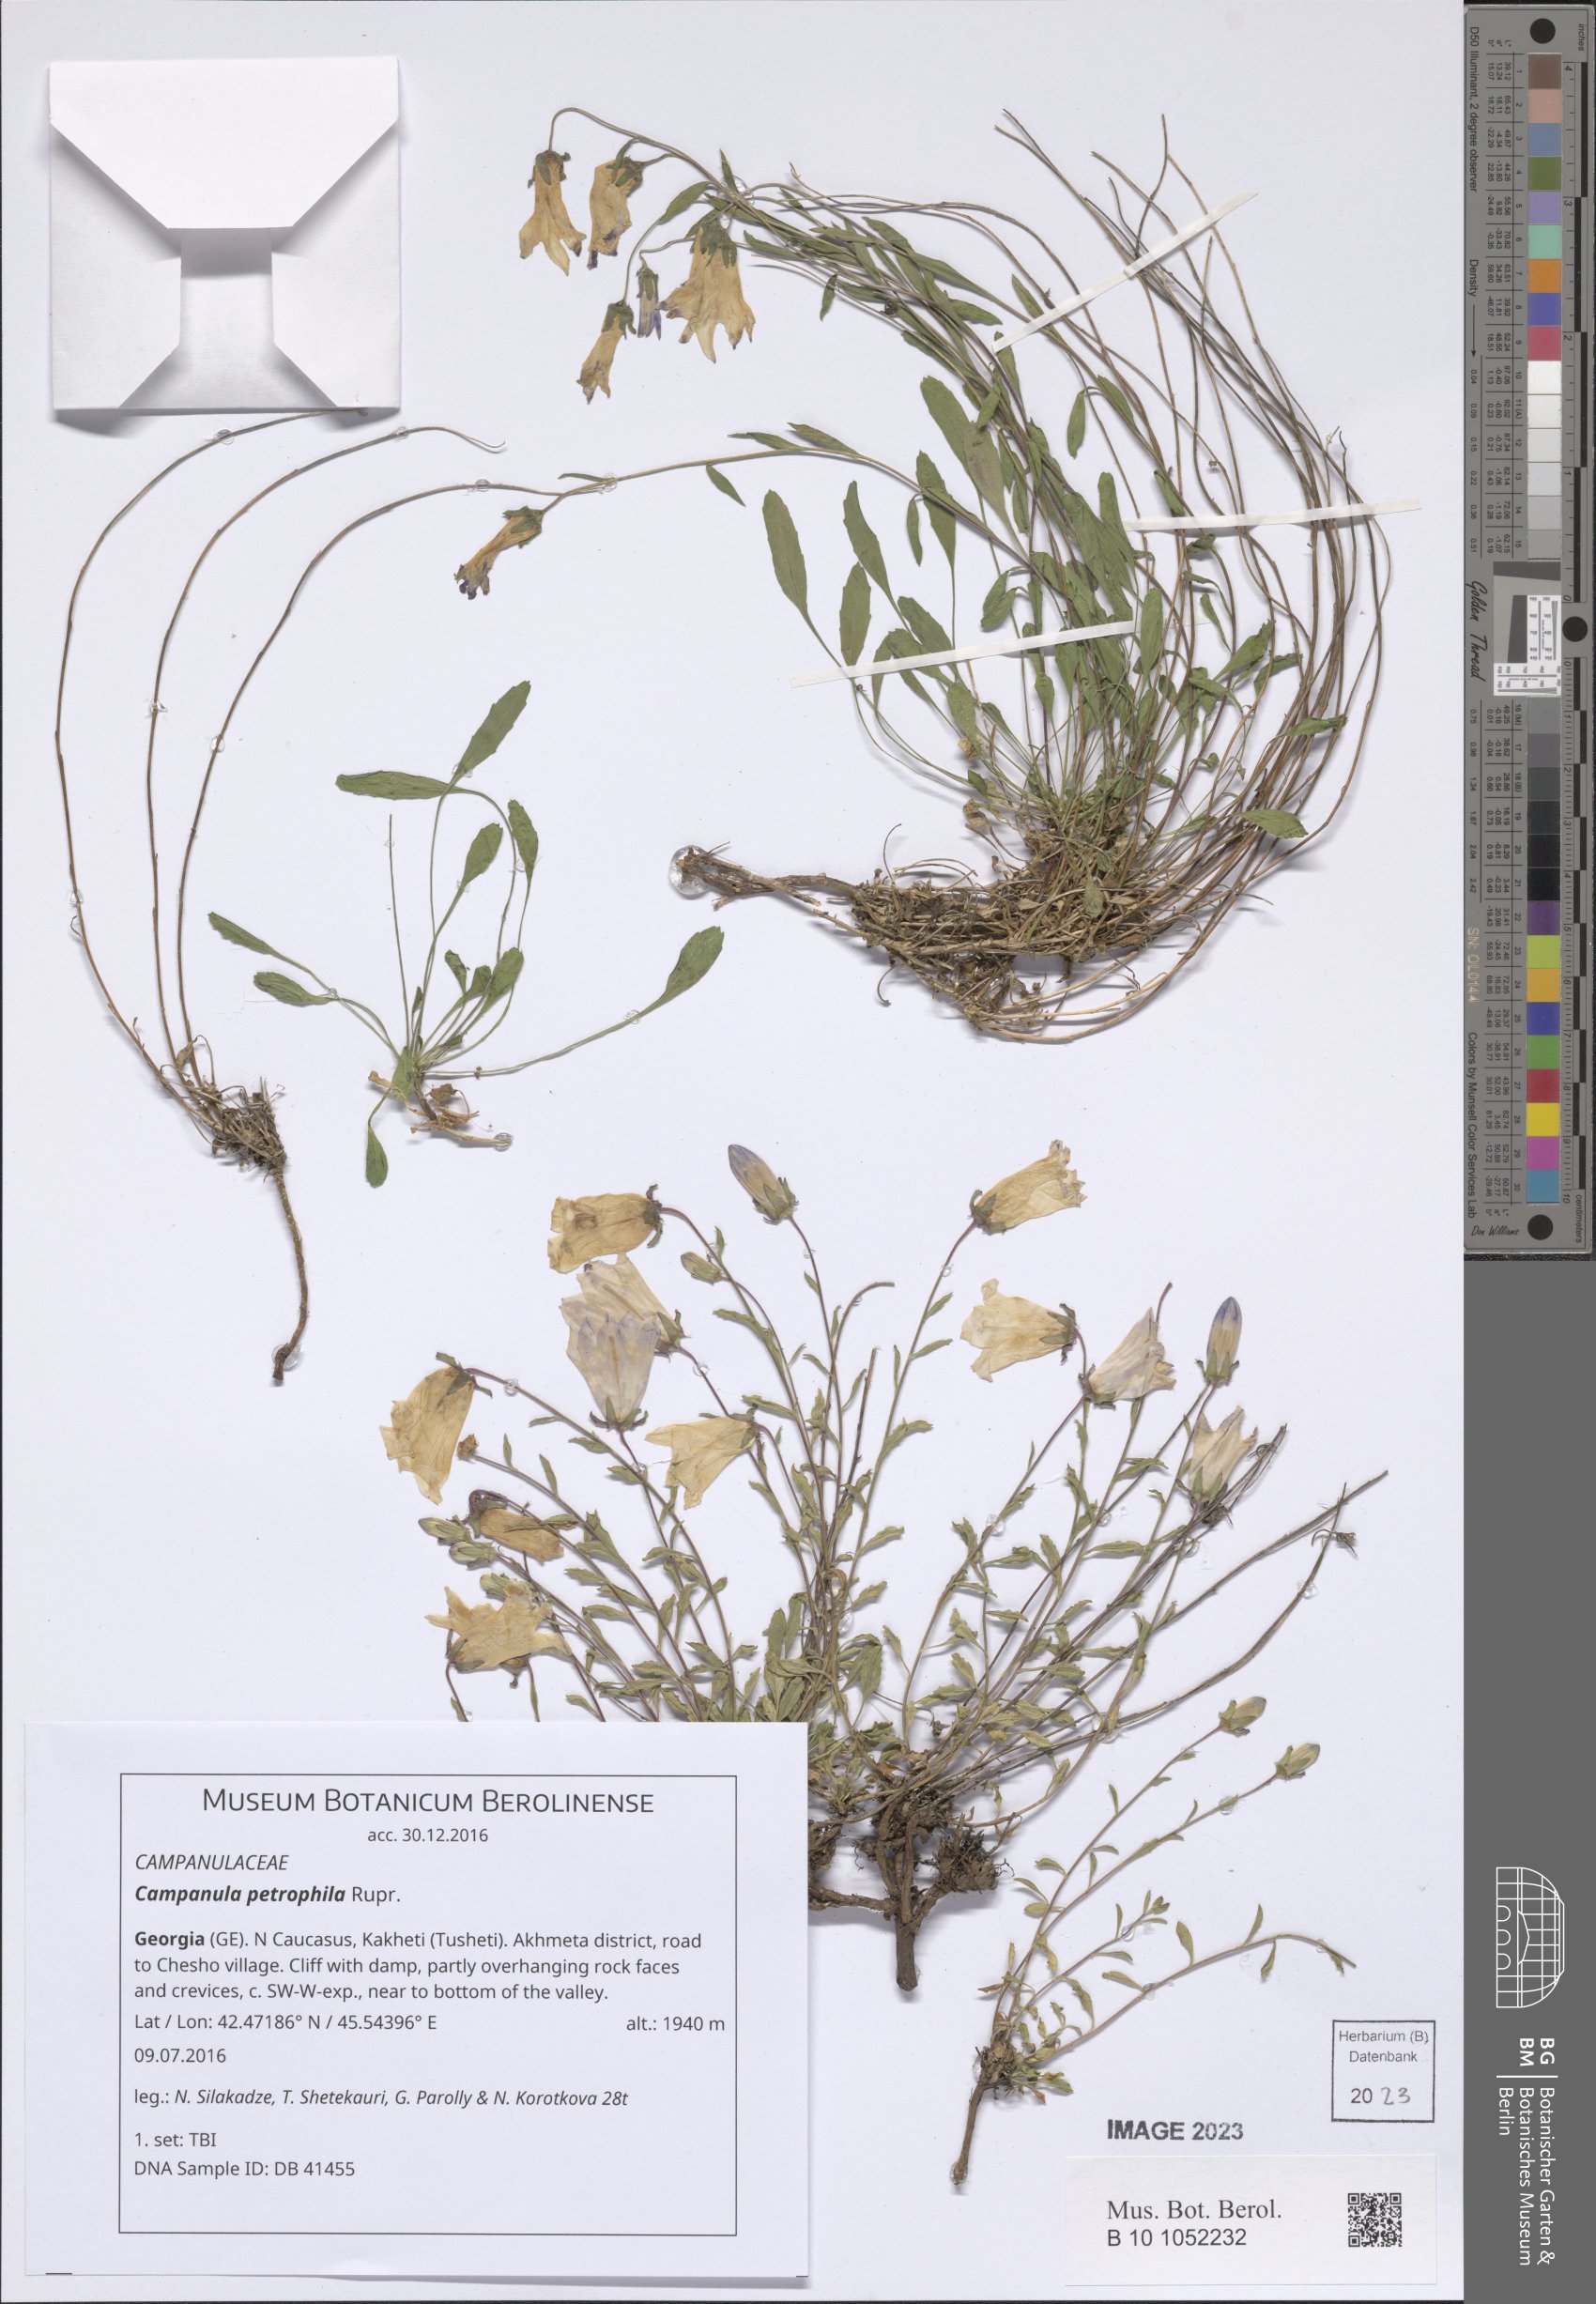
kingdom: Plantae
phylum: Tracheophyta
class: Magnoliopsida
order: Asterales
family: Campanulaceae
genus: Campanula
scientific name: Campanula petrophila
